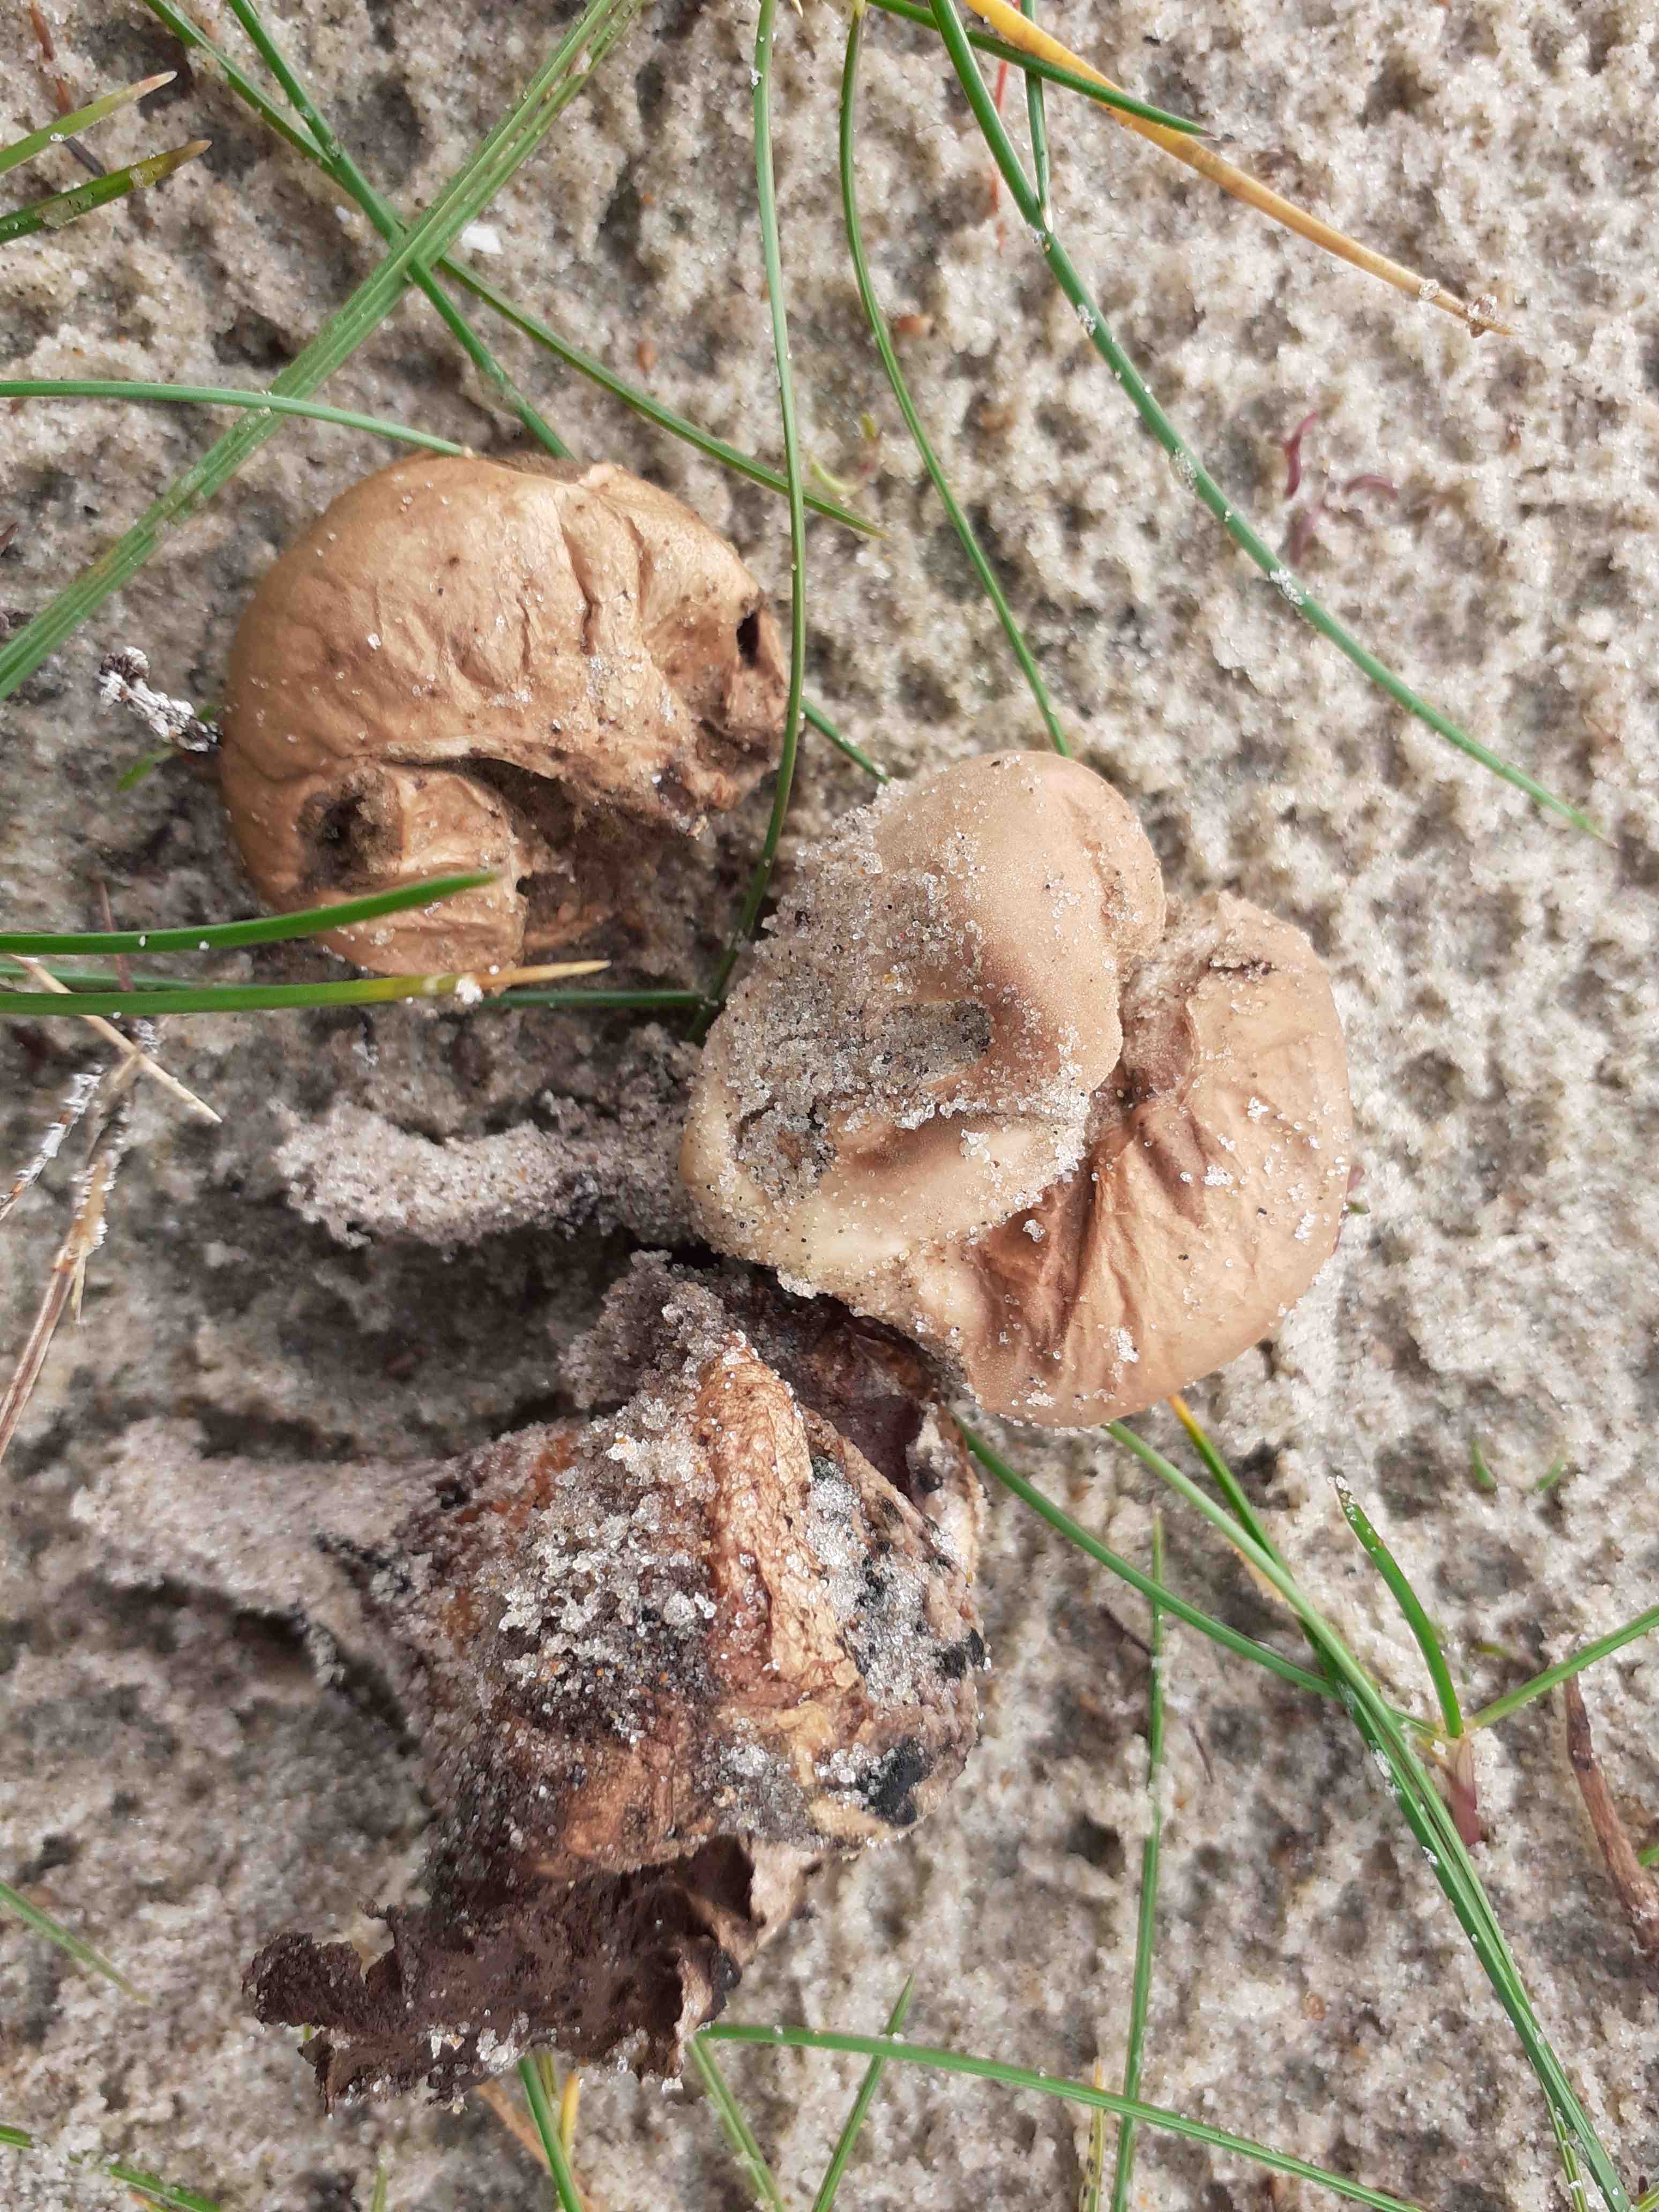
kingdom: Fungi
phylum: Basidiomycota
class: Agaricomycetes
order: Agaricales
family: Lycoperdaceae
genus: Bovista
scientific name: Bovista aestivalis
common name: klit-bovist
